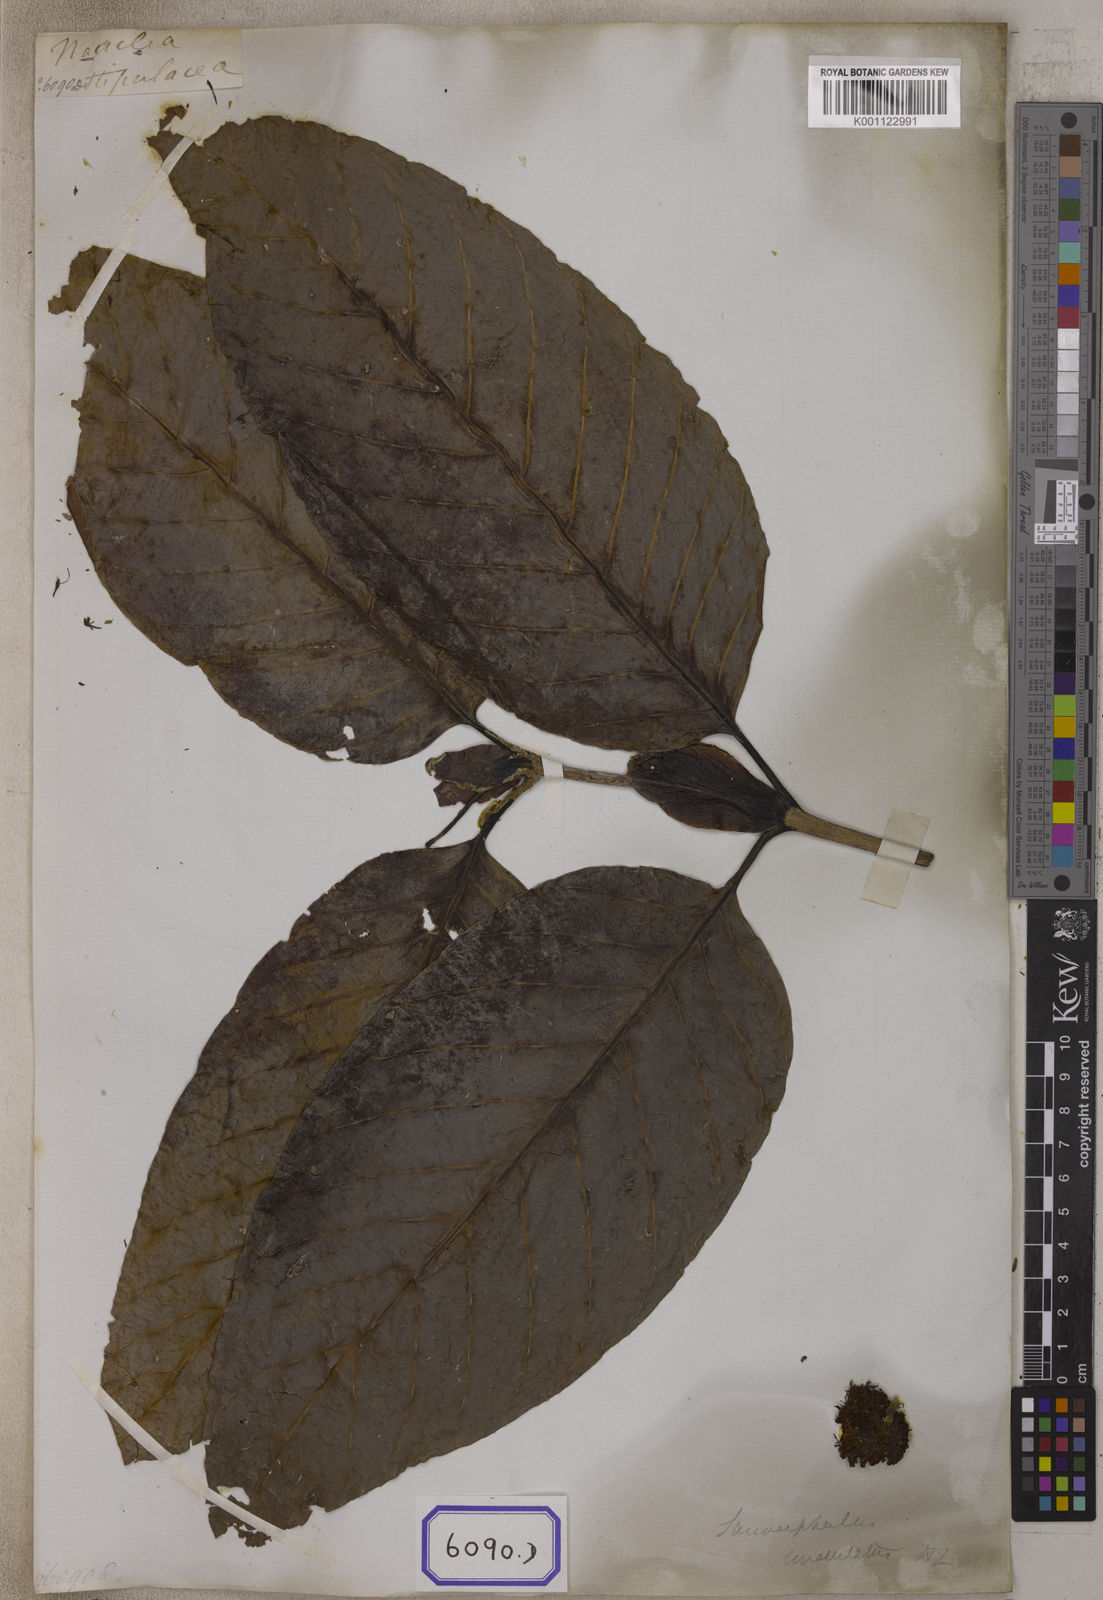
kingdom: Plantae
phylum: Tracheophyta
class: Magnoliopsida
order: Gentianales
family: Rubiaceae
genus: Nauclea
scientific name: Nauclea
